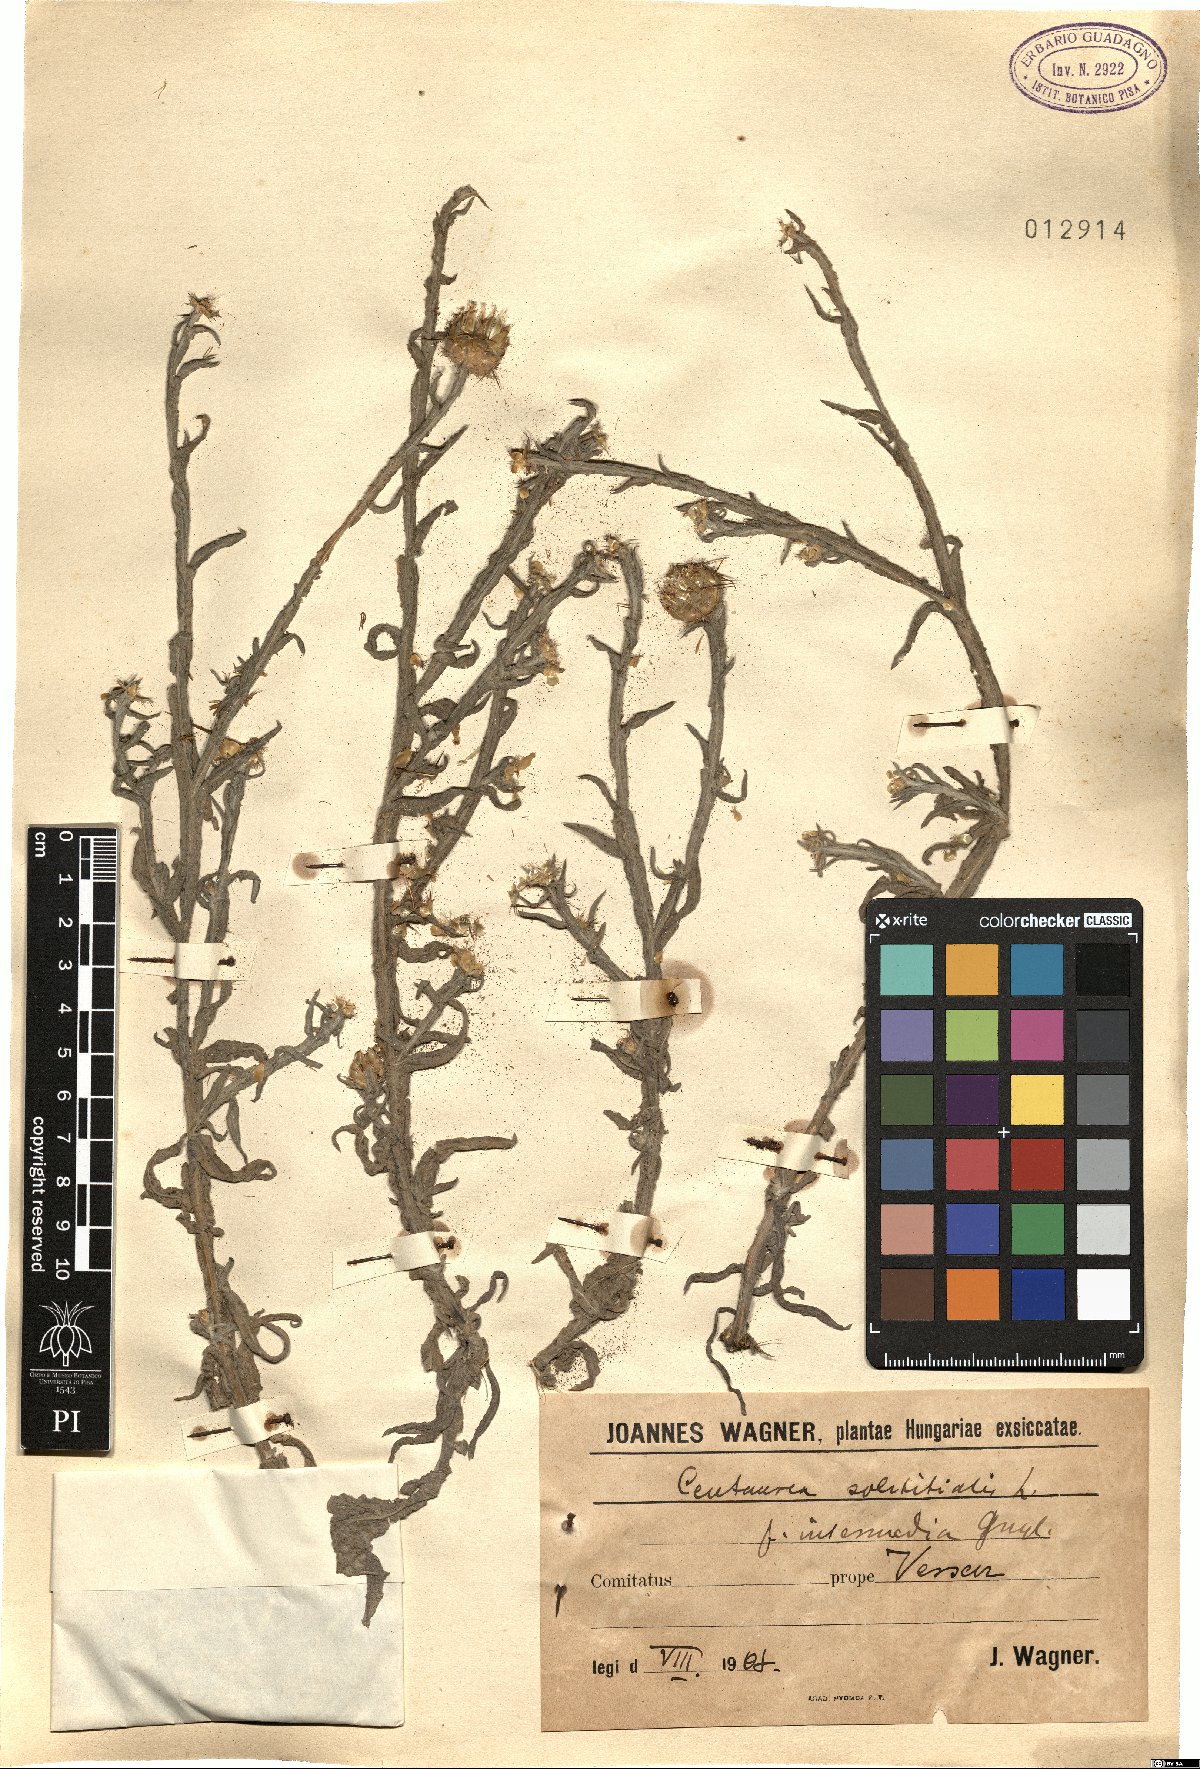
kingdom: Plantae
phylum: Tracheophyta
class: Magnoliopsida
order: Asterales
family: Asteraceae
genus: Centaurea
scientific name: Centaurea solstitialis
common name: Yellow star-thistle
